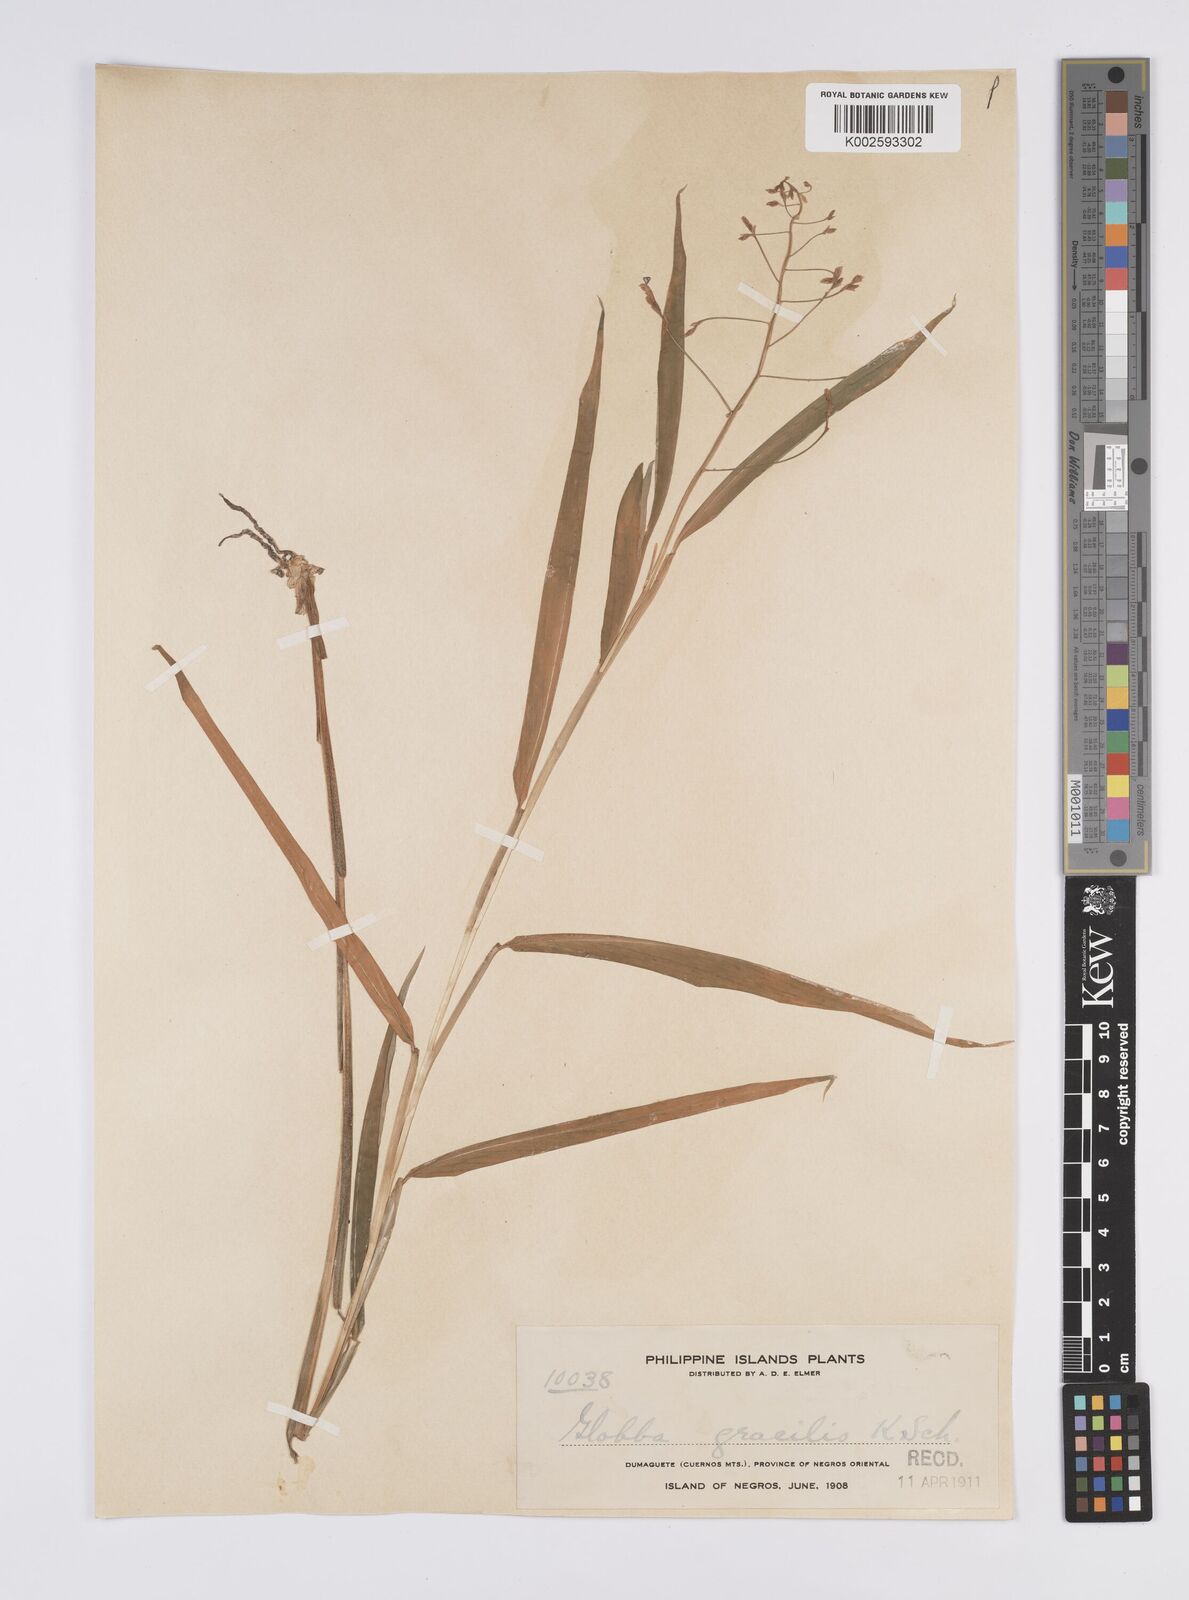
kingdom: Plantae
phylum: Tracheophyta
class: Liliopsida
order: Zingiberales
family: Zingiberaceae
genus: Globba
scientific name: Globba gracilis
